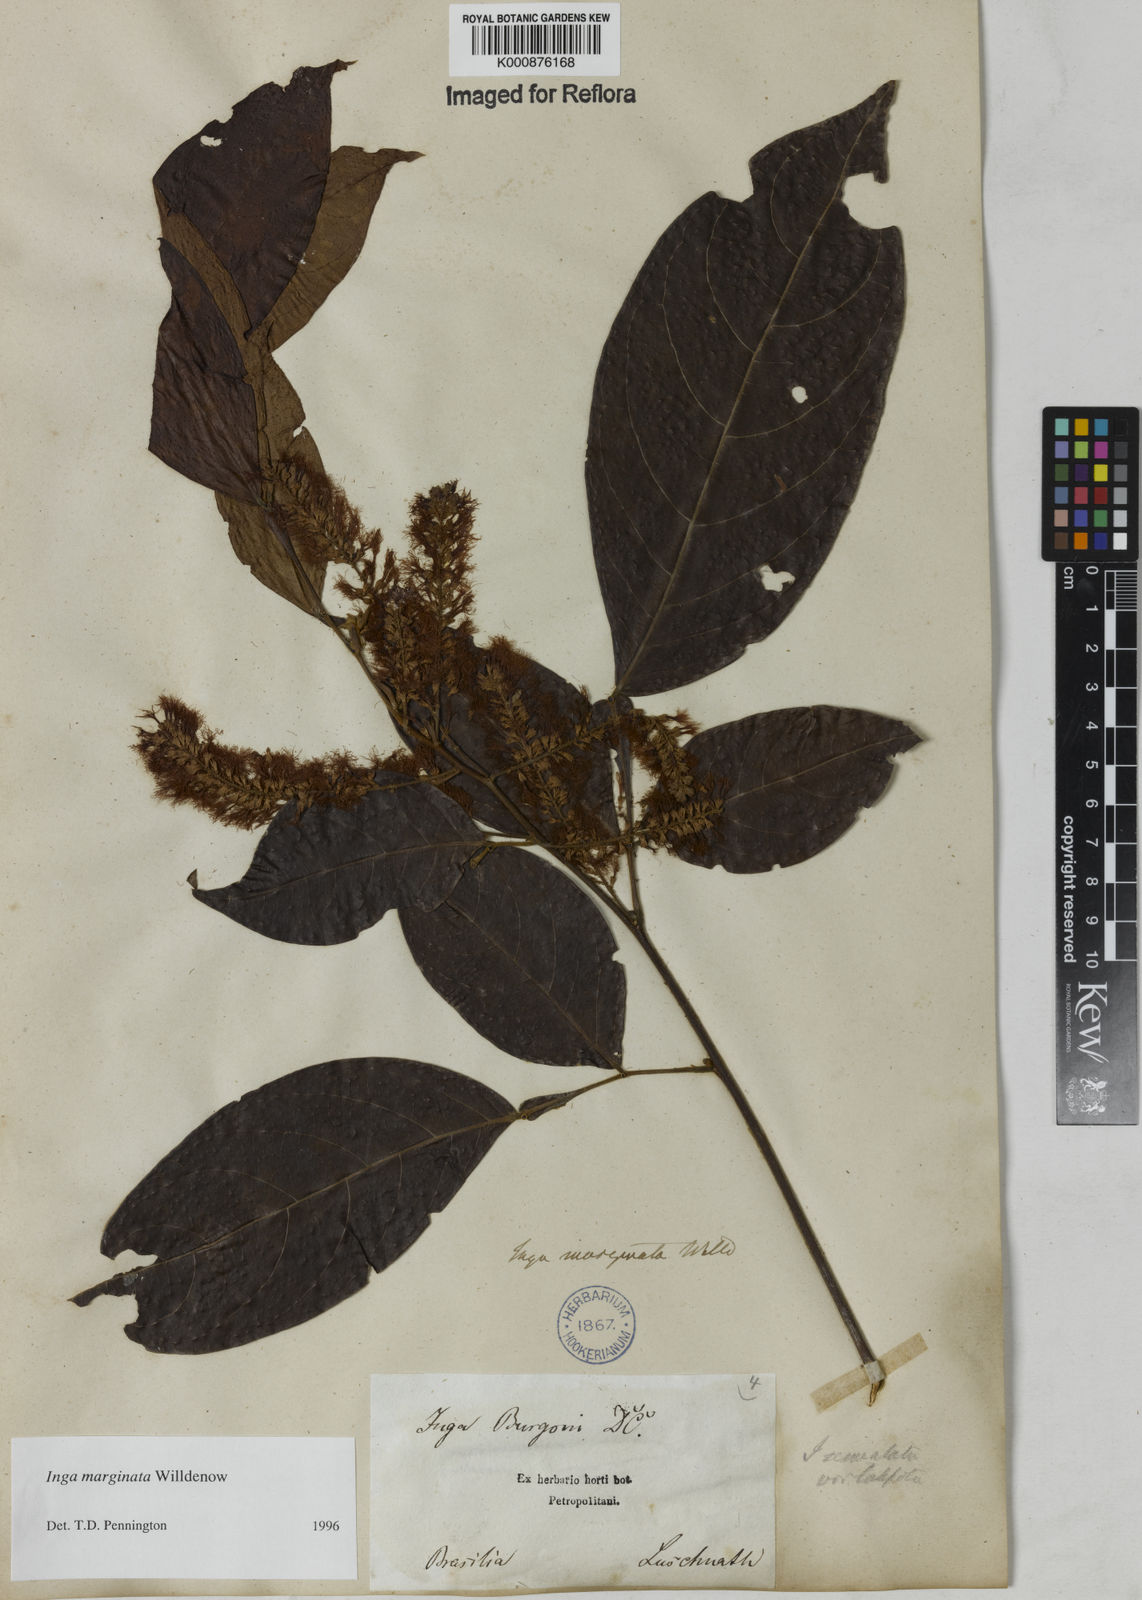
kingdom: Plantae
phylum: Tracheophyta
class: Magnoliopsida
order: Fabales
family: Fabaceae
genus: Inga
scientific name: Inga marginata
